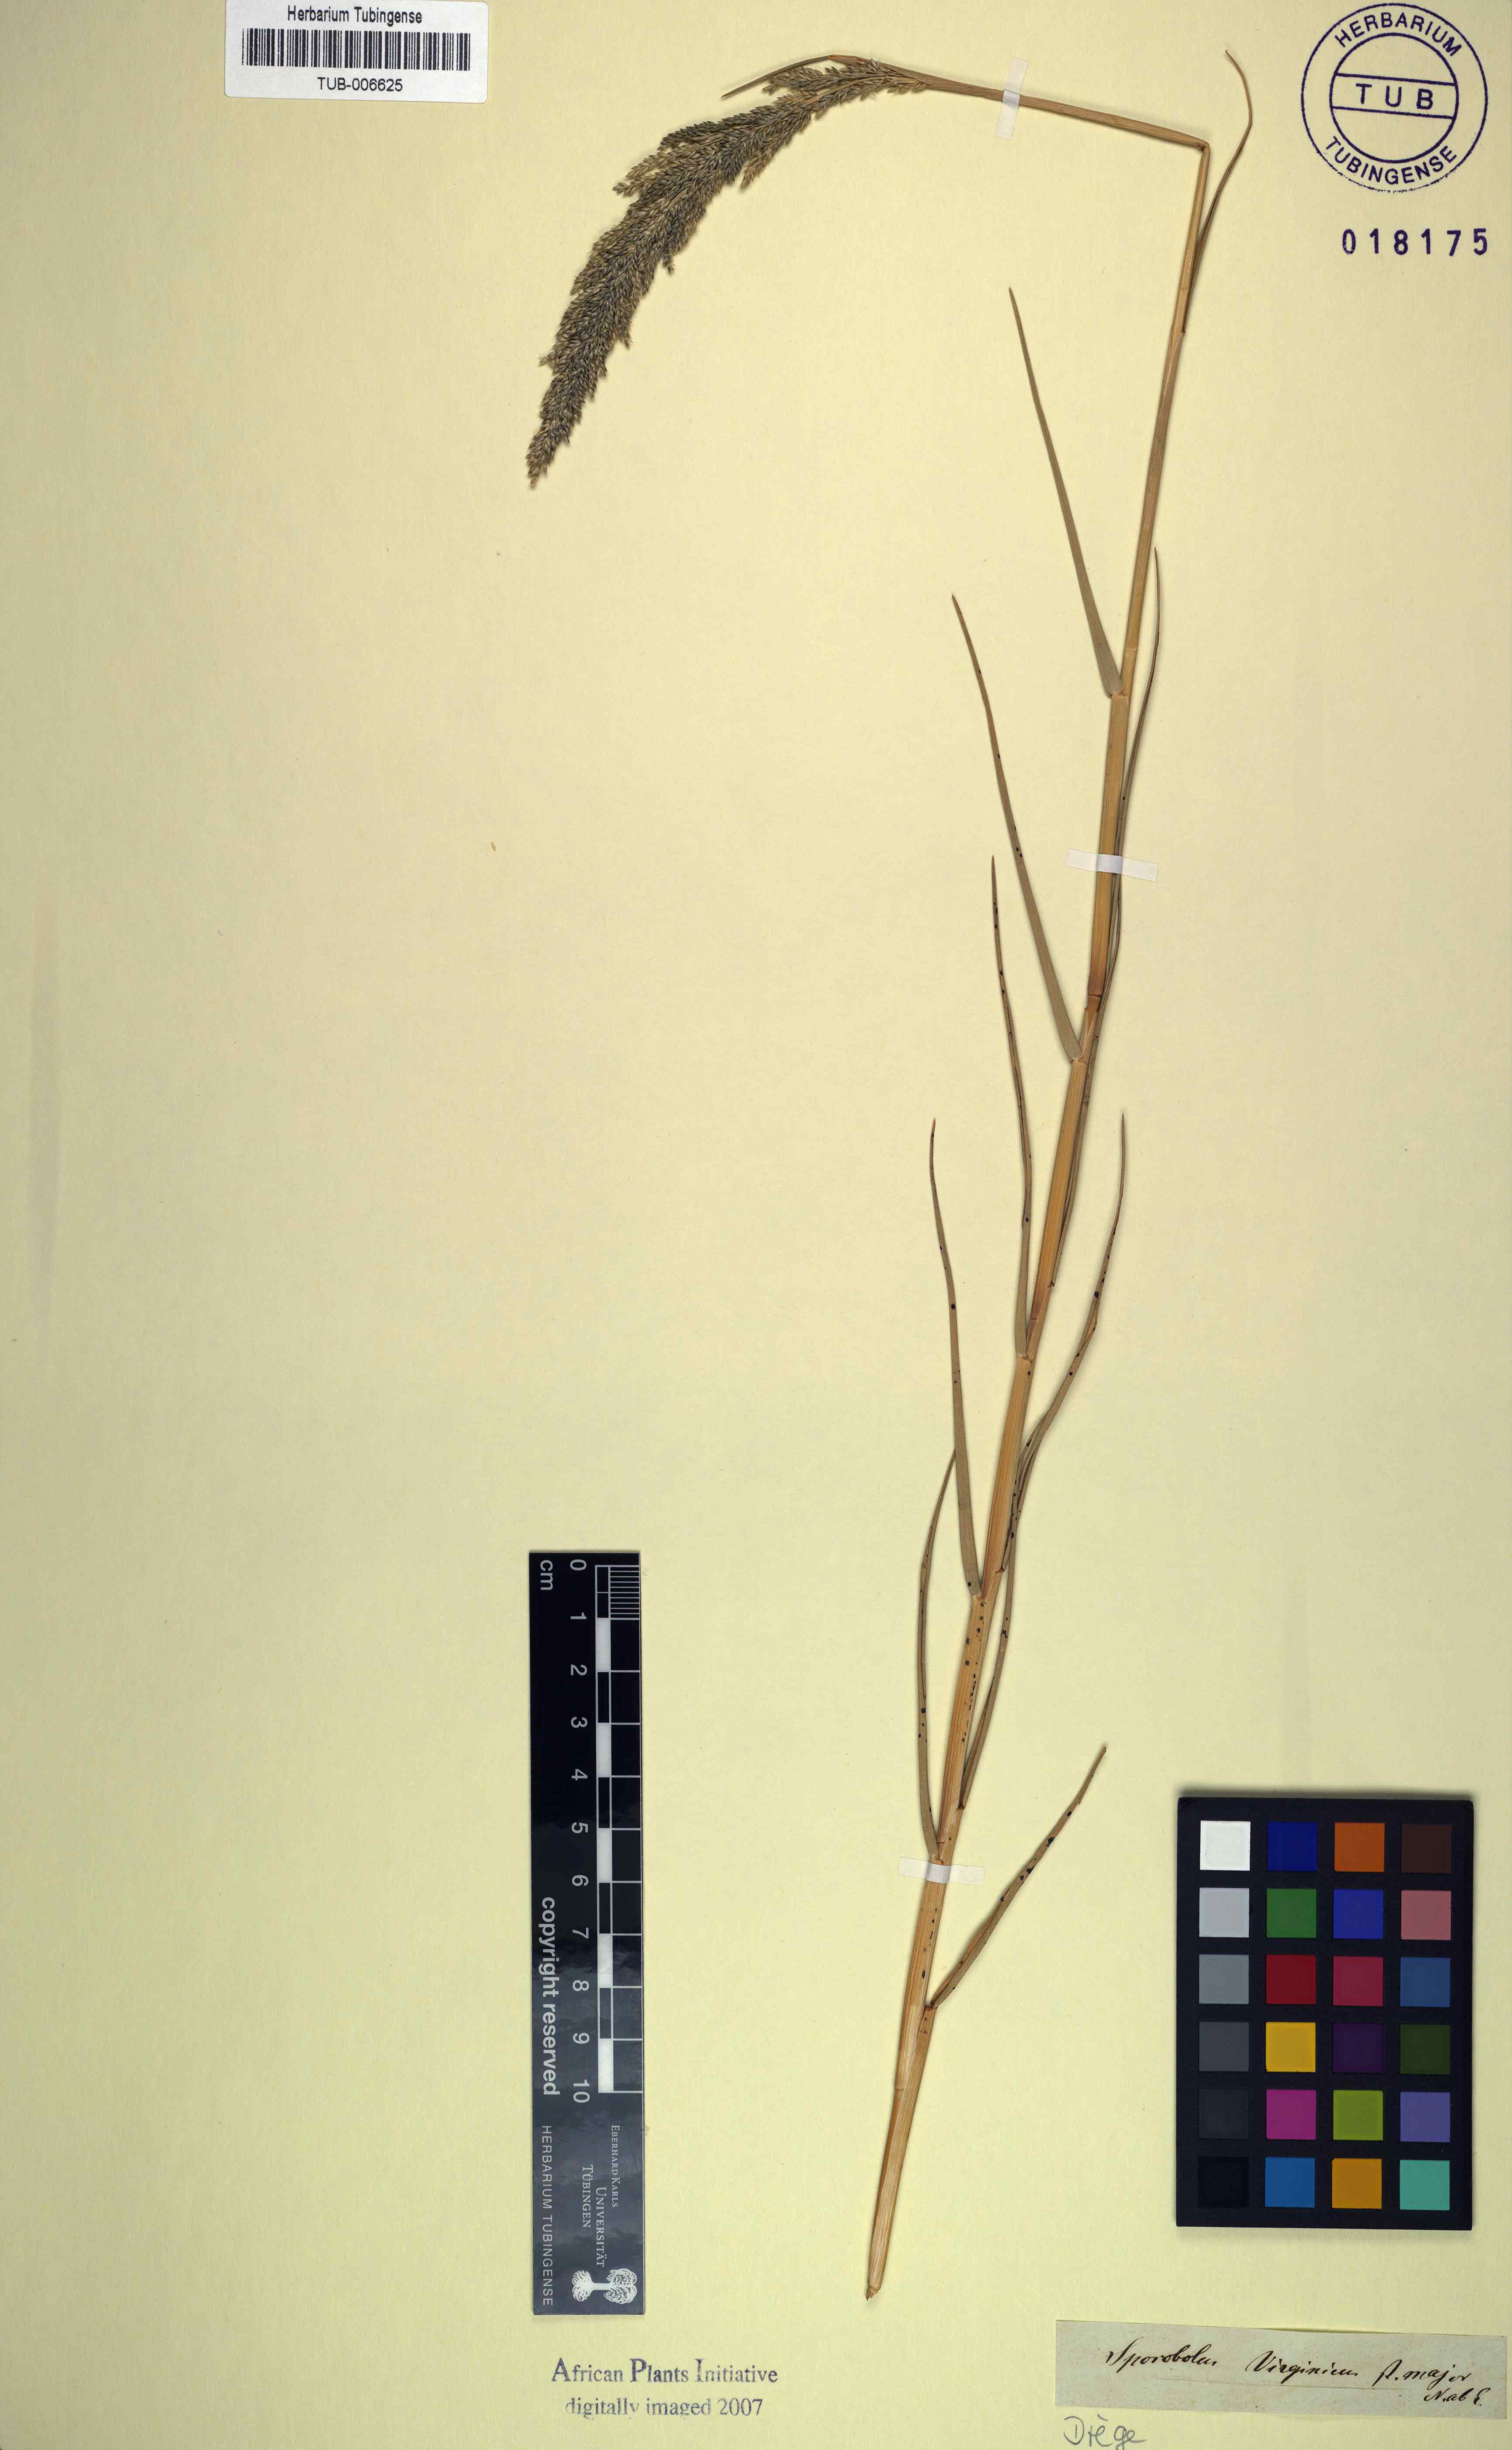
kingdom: Plantae
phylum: Tracheophyta
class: Liliopsida
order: Poales
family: Poaceae
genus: Sporobolus
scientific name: Sporobolus virginicus
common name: Beach dropseed
